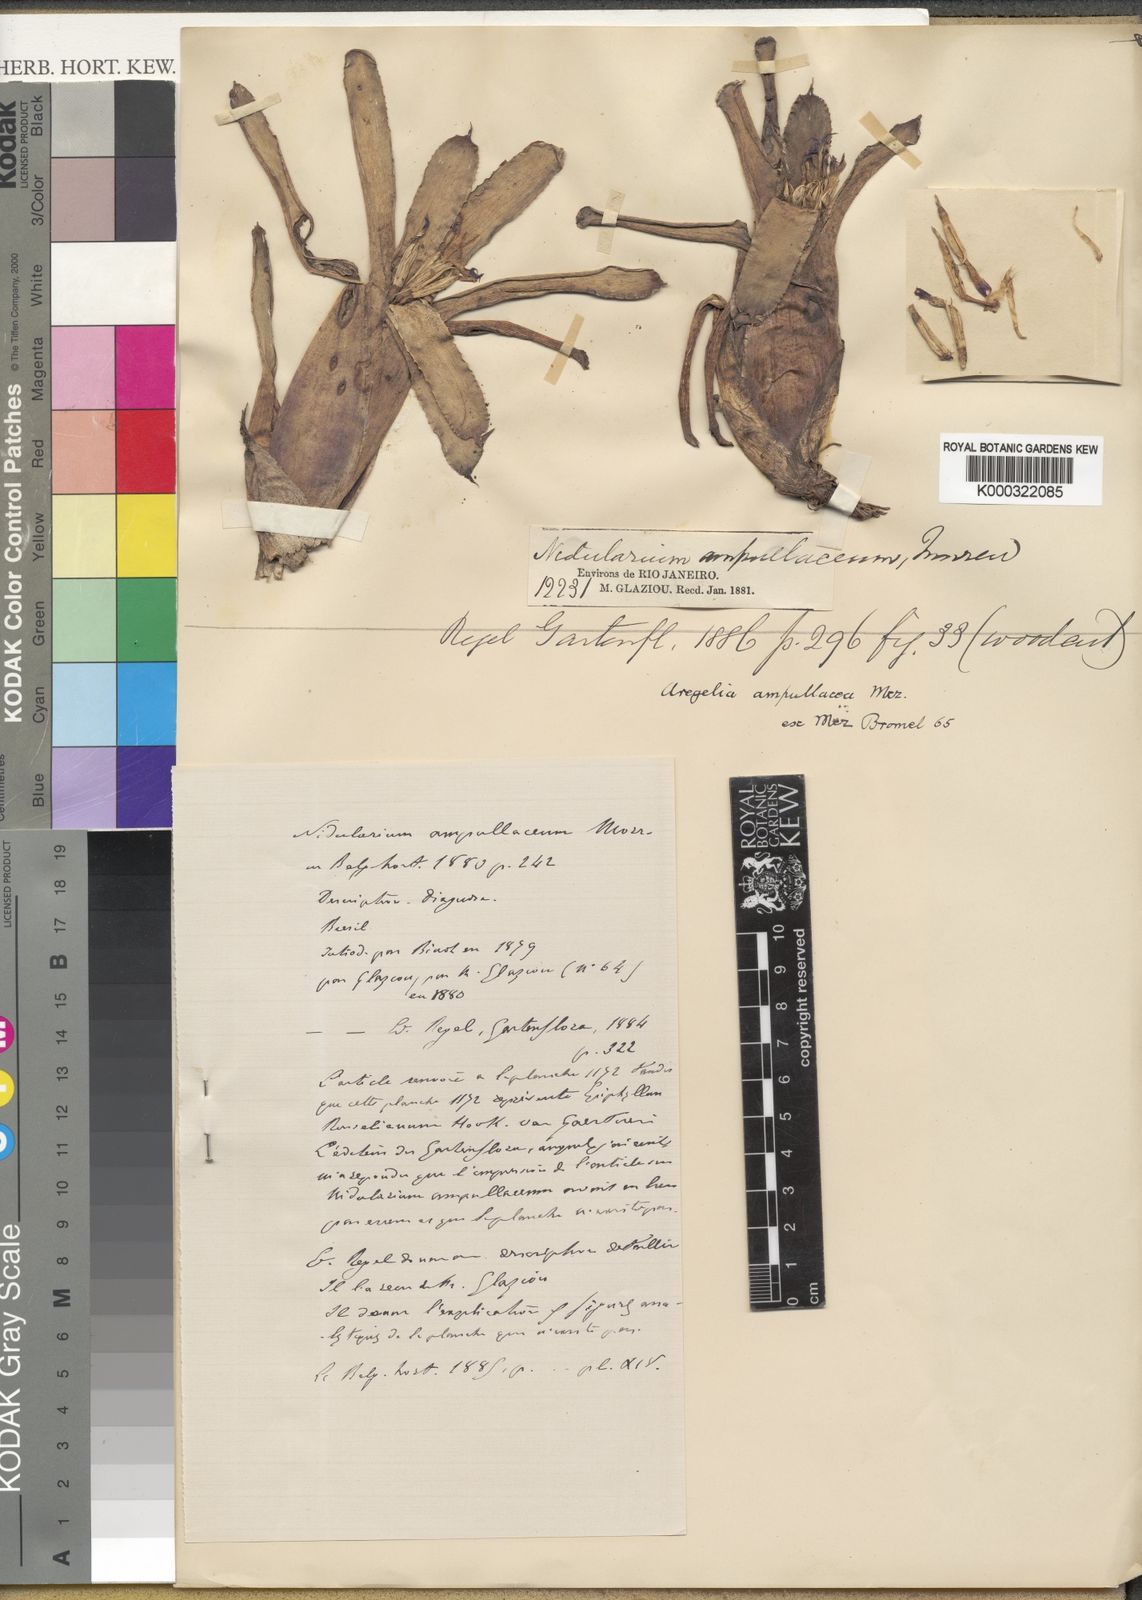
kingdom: Plantae
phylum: Tracheophyta
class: Liliopsida
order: Poales
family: Bromeliaceae
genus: Neoregelia
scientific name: Neoregelia ampullacea
